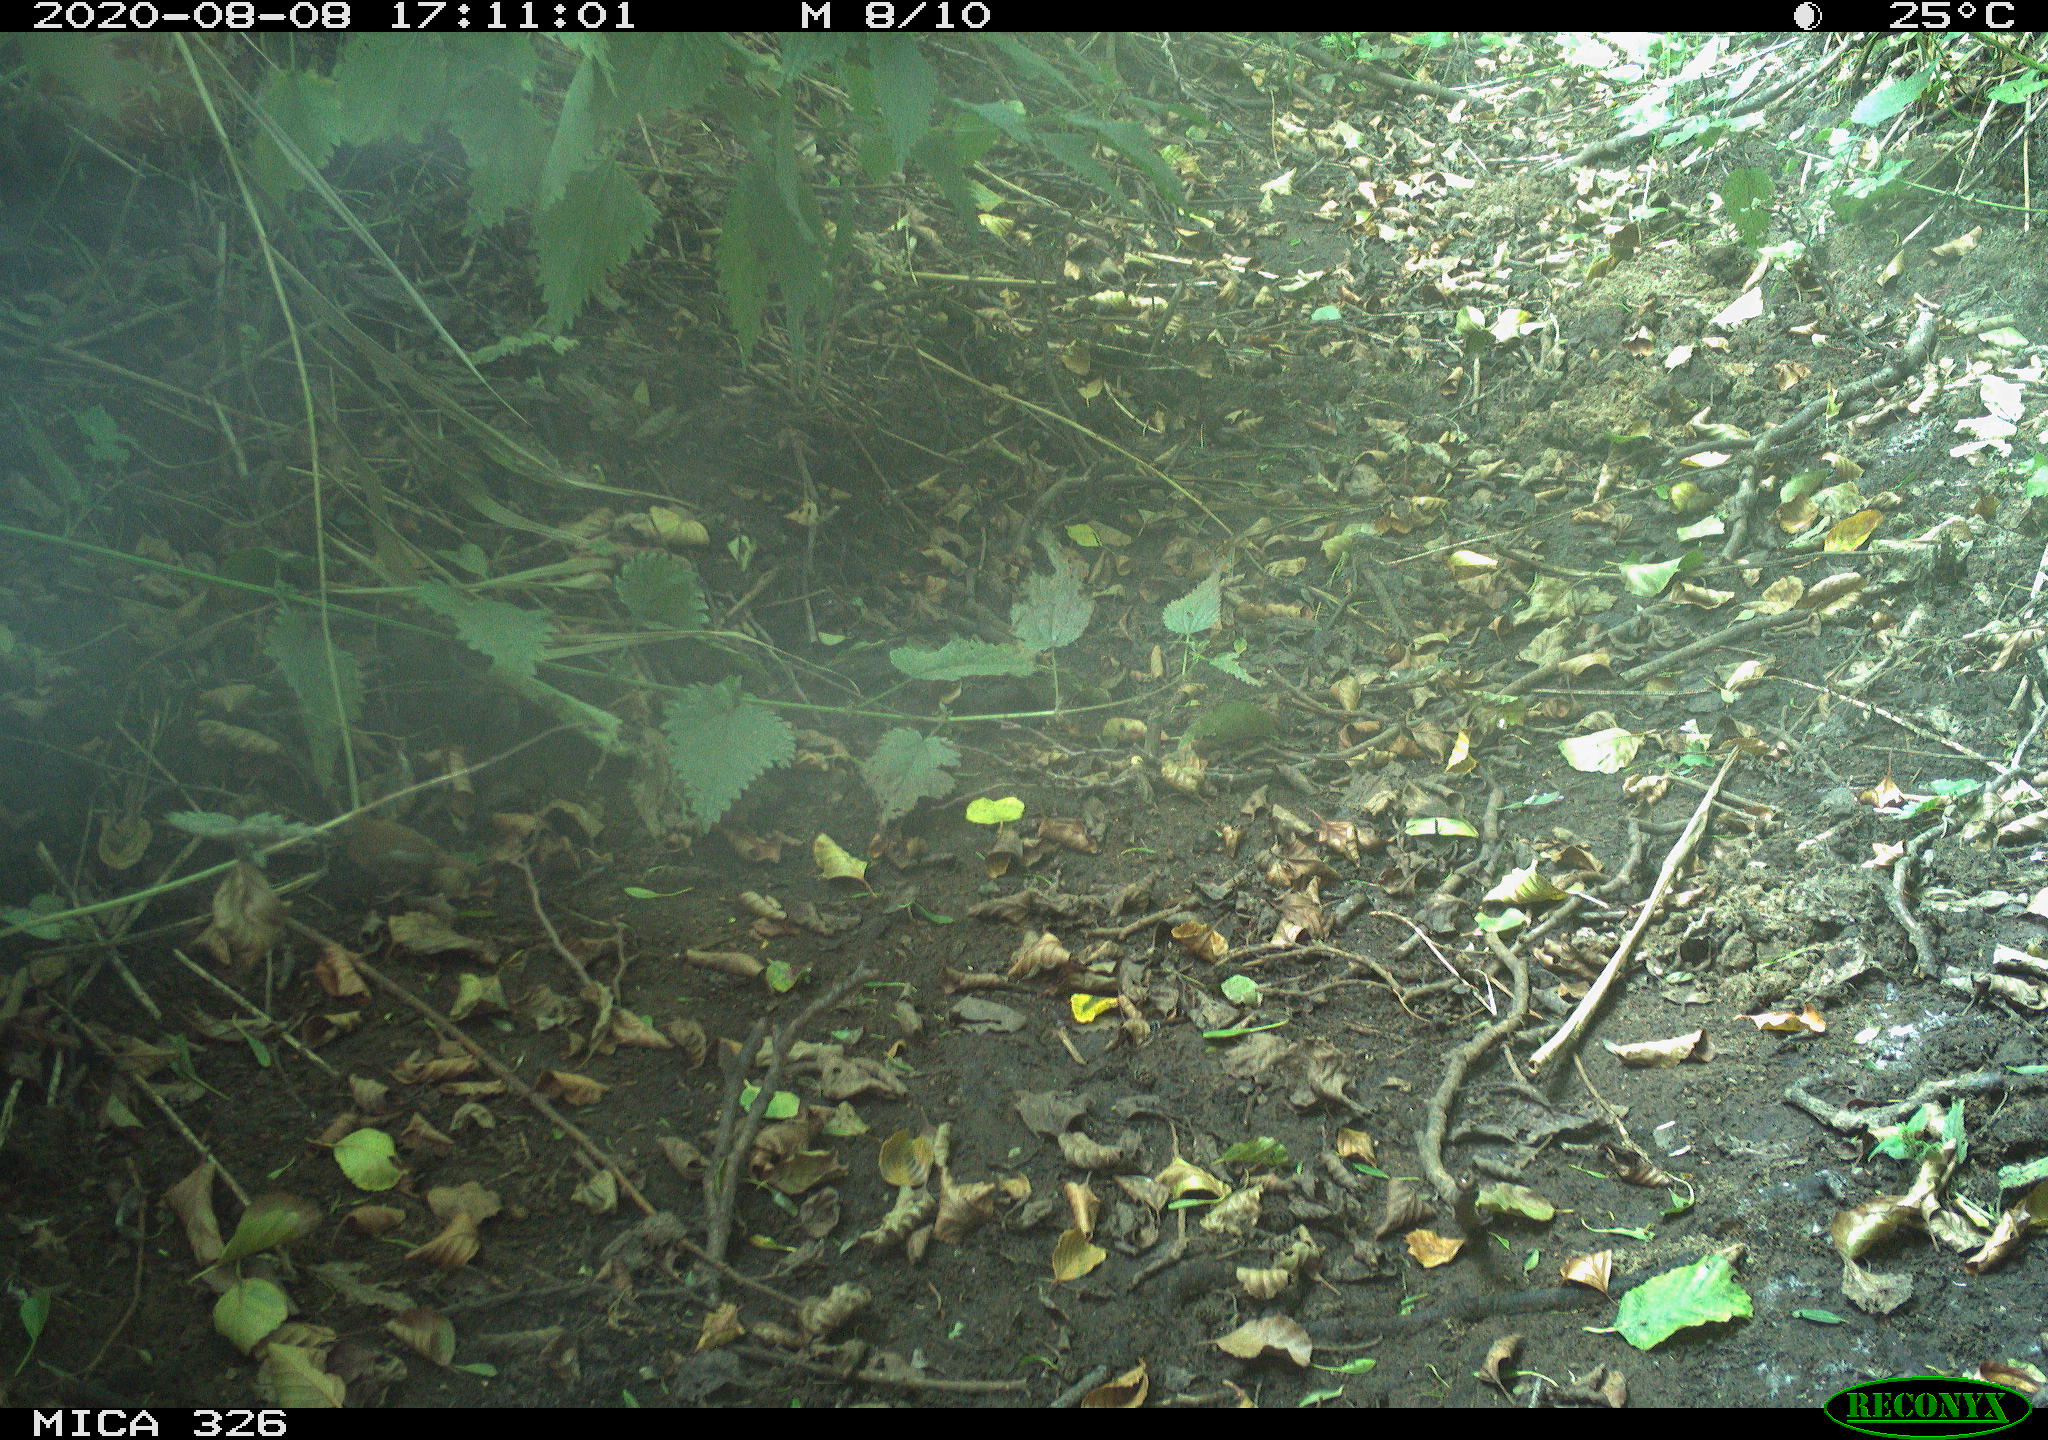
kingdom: Animalia
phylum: Chordata
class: Aves
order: Passeriformes
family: Troglodytidae
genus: Troglodytes
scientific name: Troglodytes troglodytes
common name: Eurasian wren
